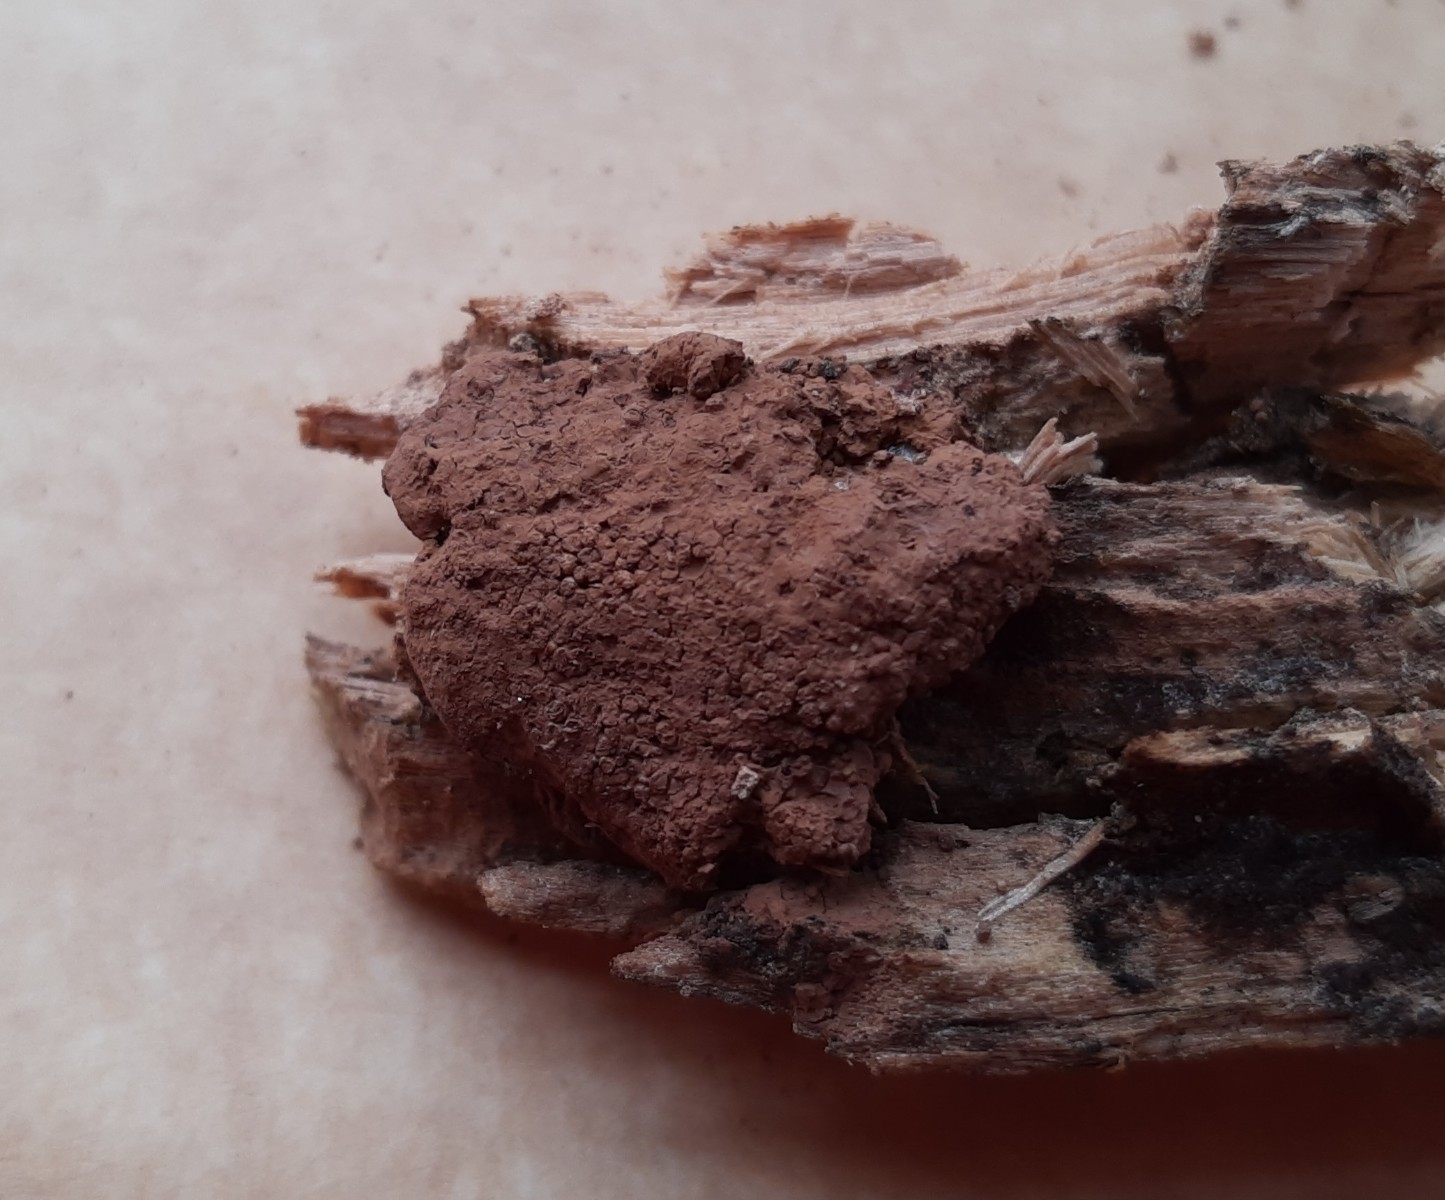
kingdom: Protozoa
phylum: Mycetozoa
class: Myxomycetes
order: Cribrariales
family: Tubiferaceae
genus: Tubifera
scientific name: Tubifera ferruginosa
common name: kanel-støvrør
